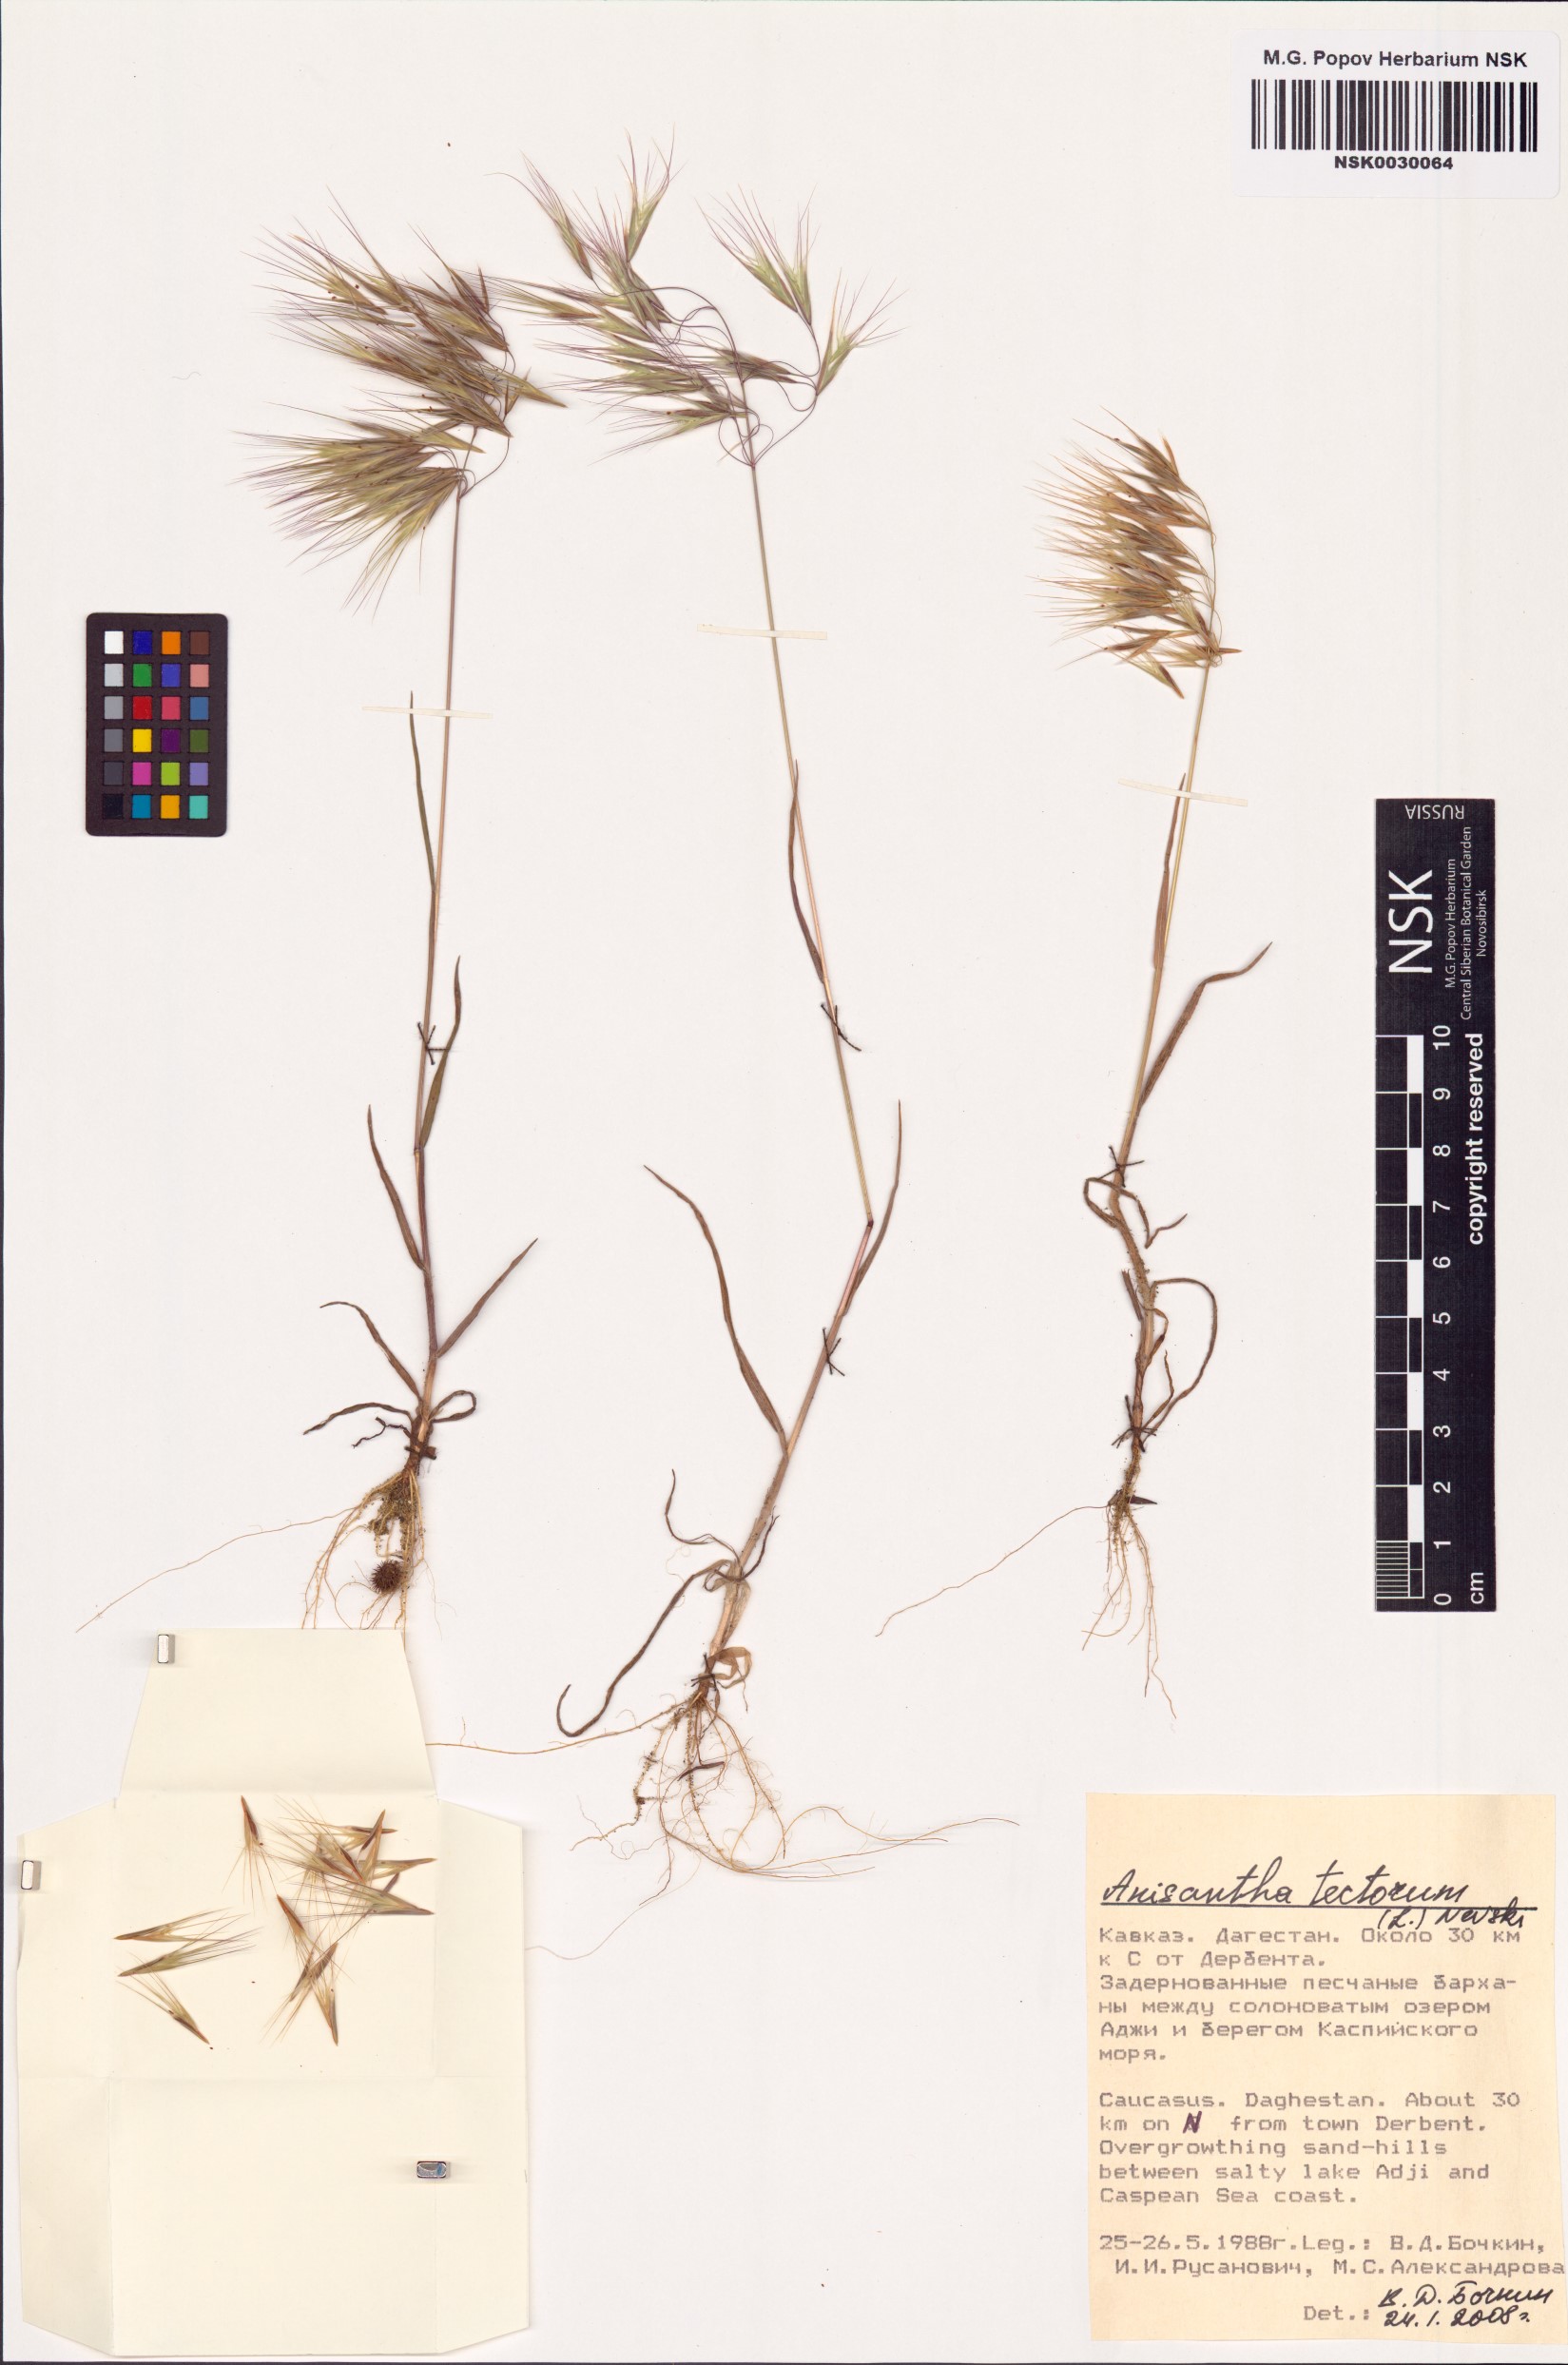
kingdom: Plantae
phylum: Tracheophyta
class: Liliopsida
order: Poales
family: Poaceae
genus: Bromus
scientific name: Bromus tectorum
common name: Cheatgrass
